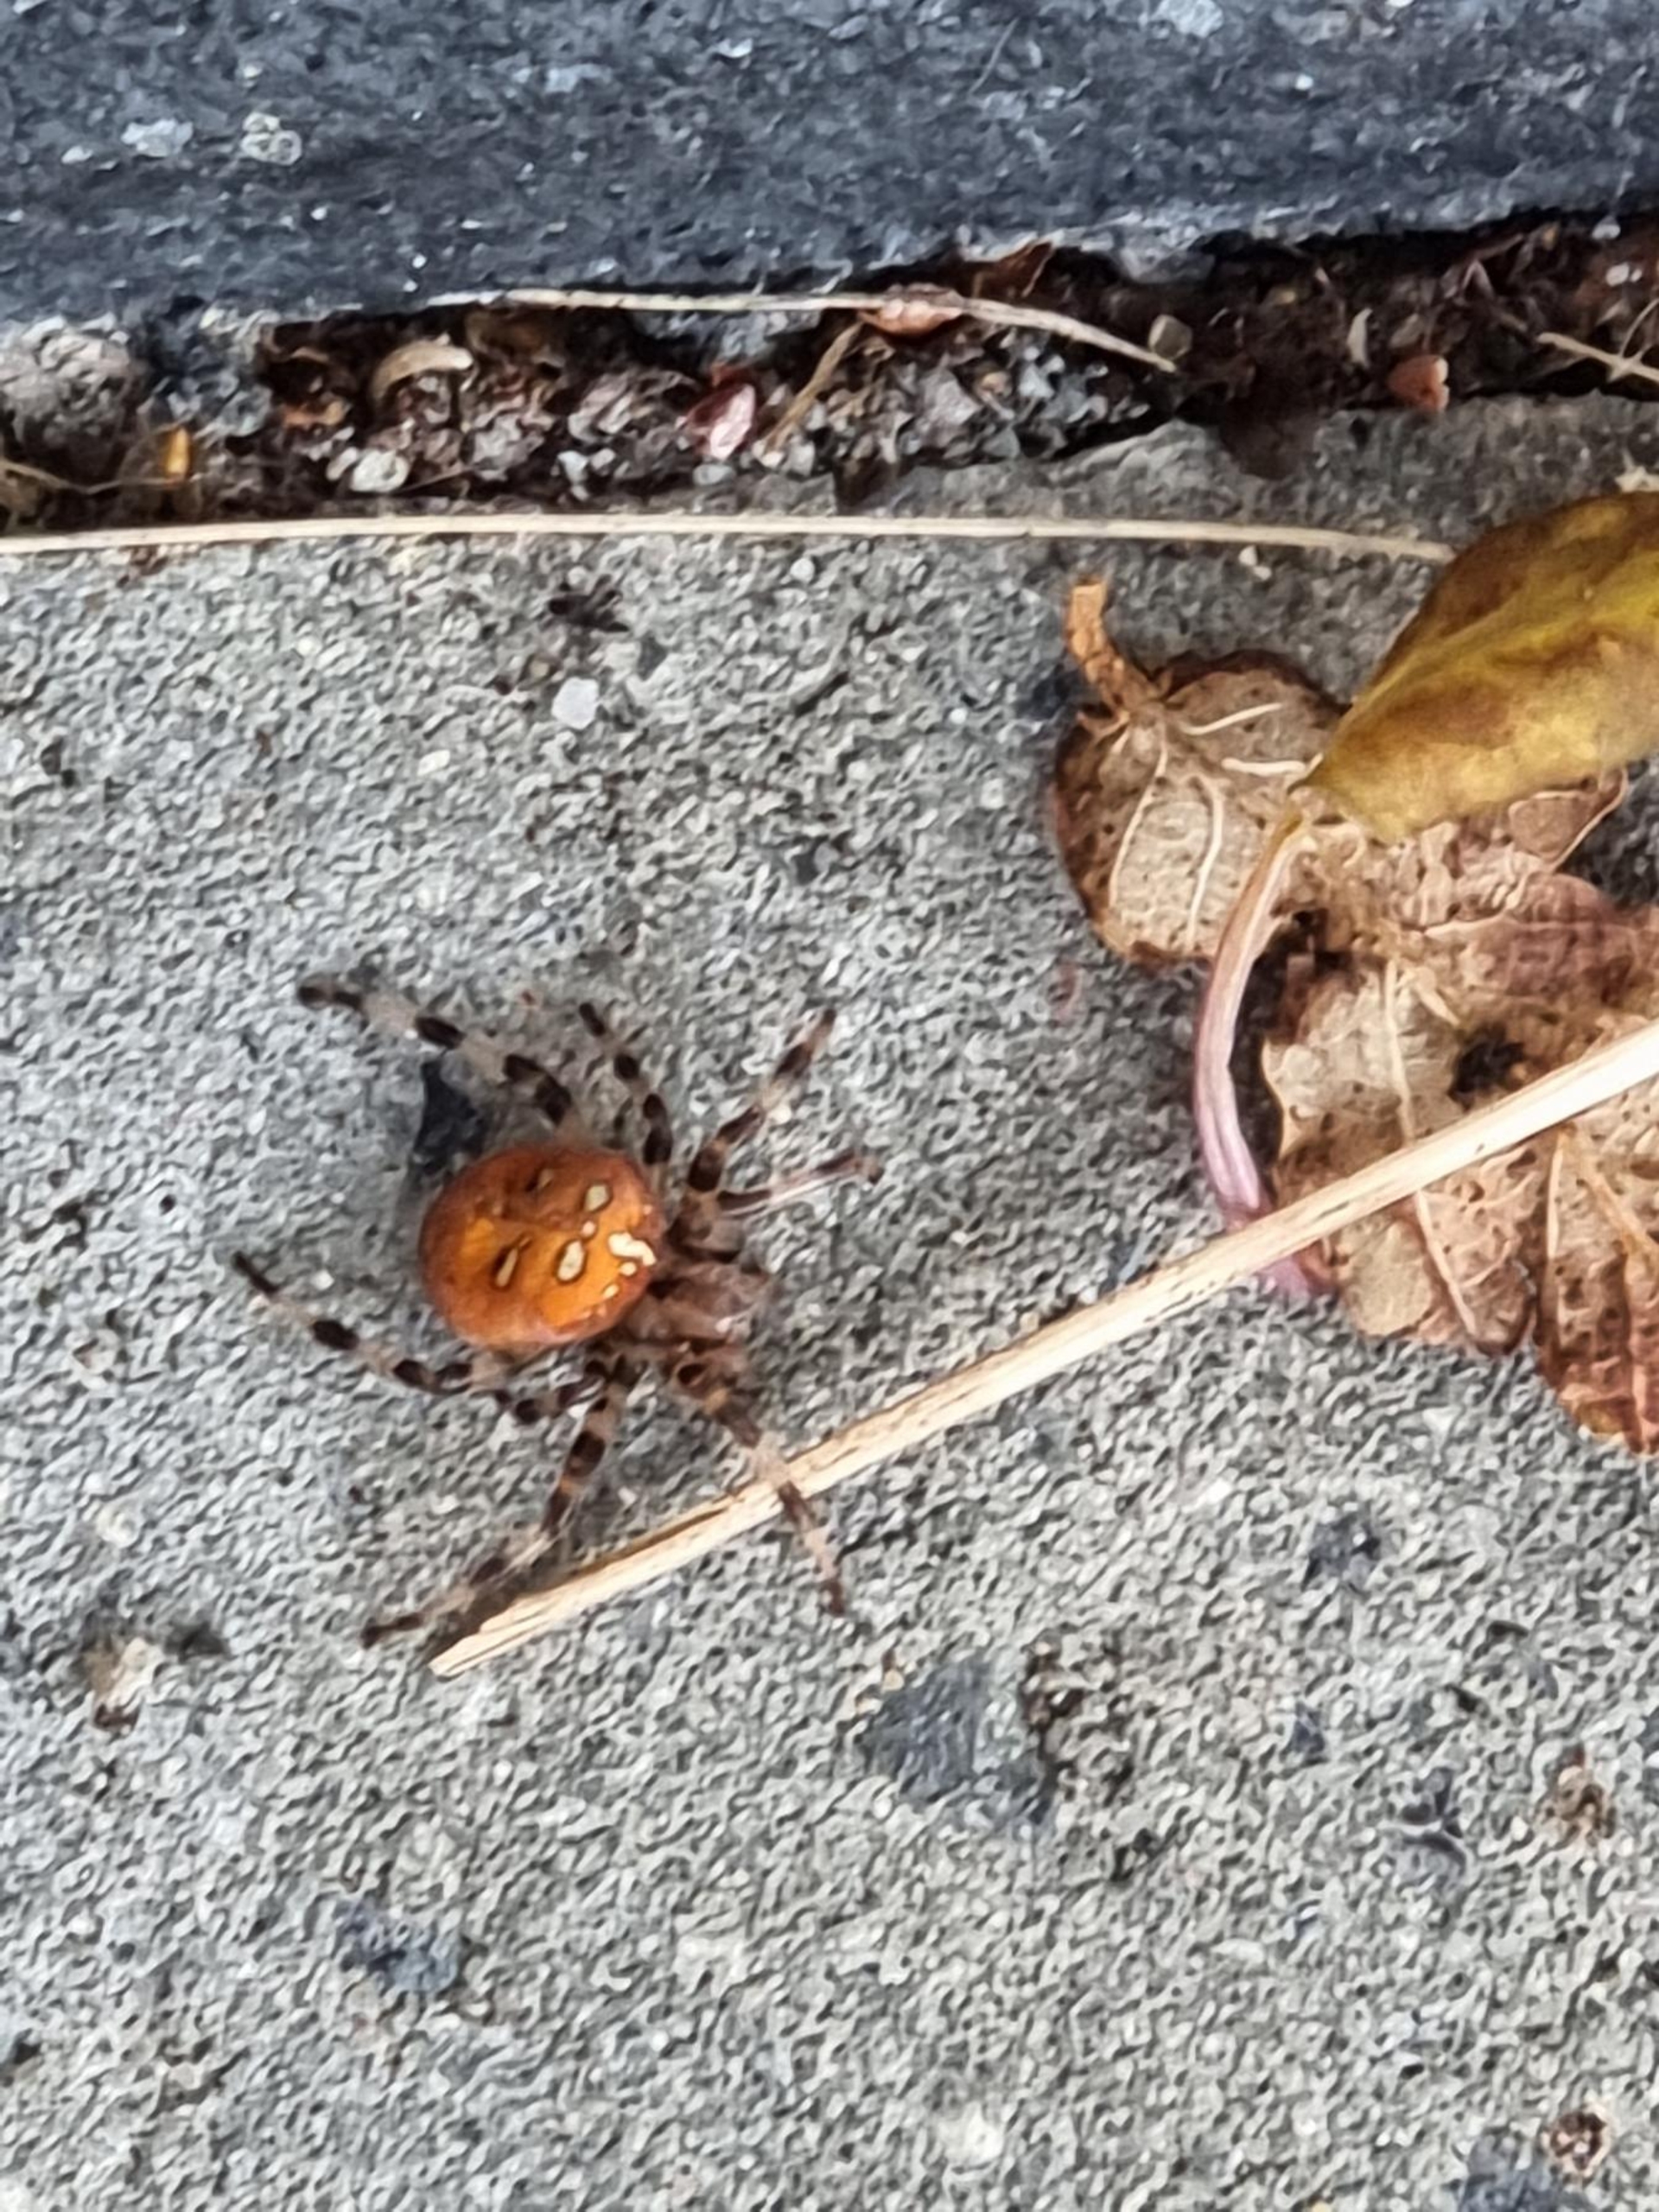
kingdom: Animalia
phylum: Arthropoda
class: Arachnida
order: Araneae
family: Araneidae
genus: Araneus
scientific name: Araneus quadratus
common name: Kvadratedderkop
